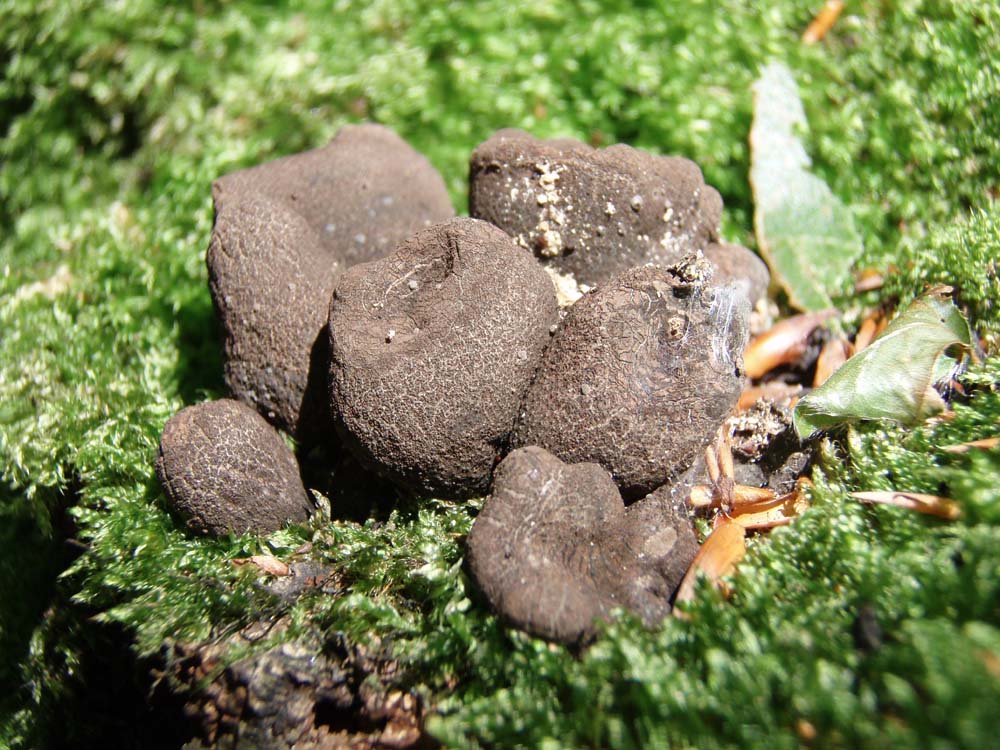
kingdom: Fungi
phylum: Ascomycota
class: Sordariomycetes
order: Xylariales
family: Xylariaceae
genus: Xylaria
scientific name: Xylaria polymorpha
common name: kølle-stødsvamp
